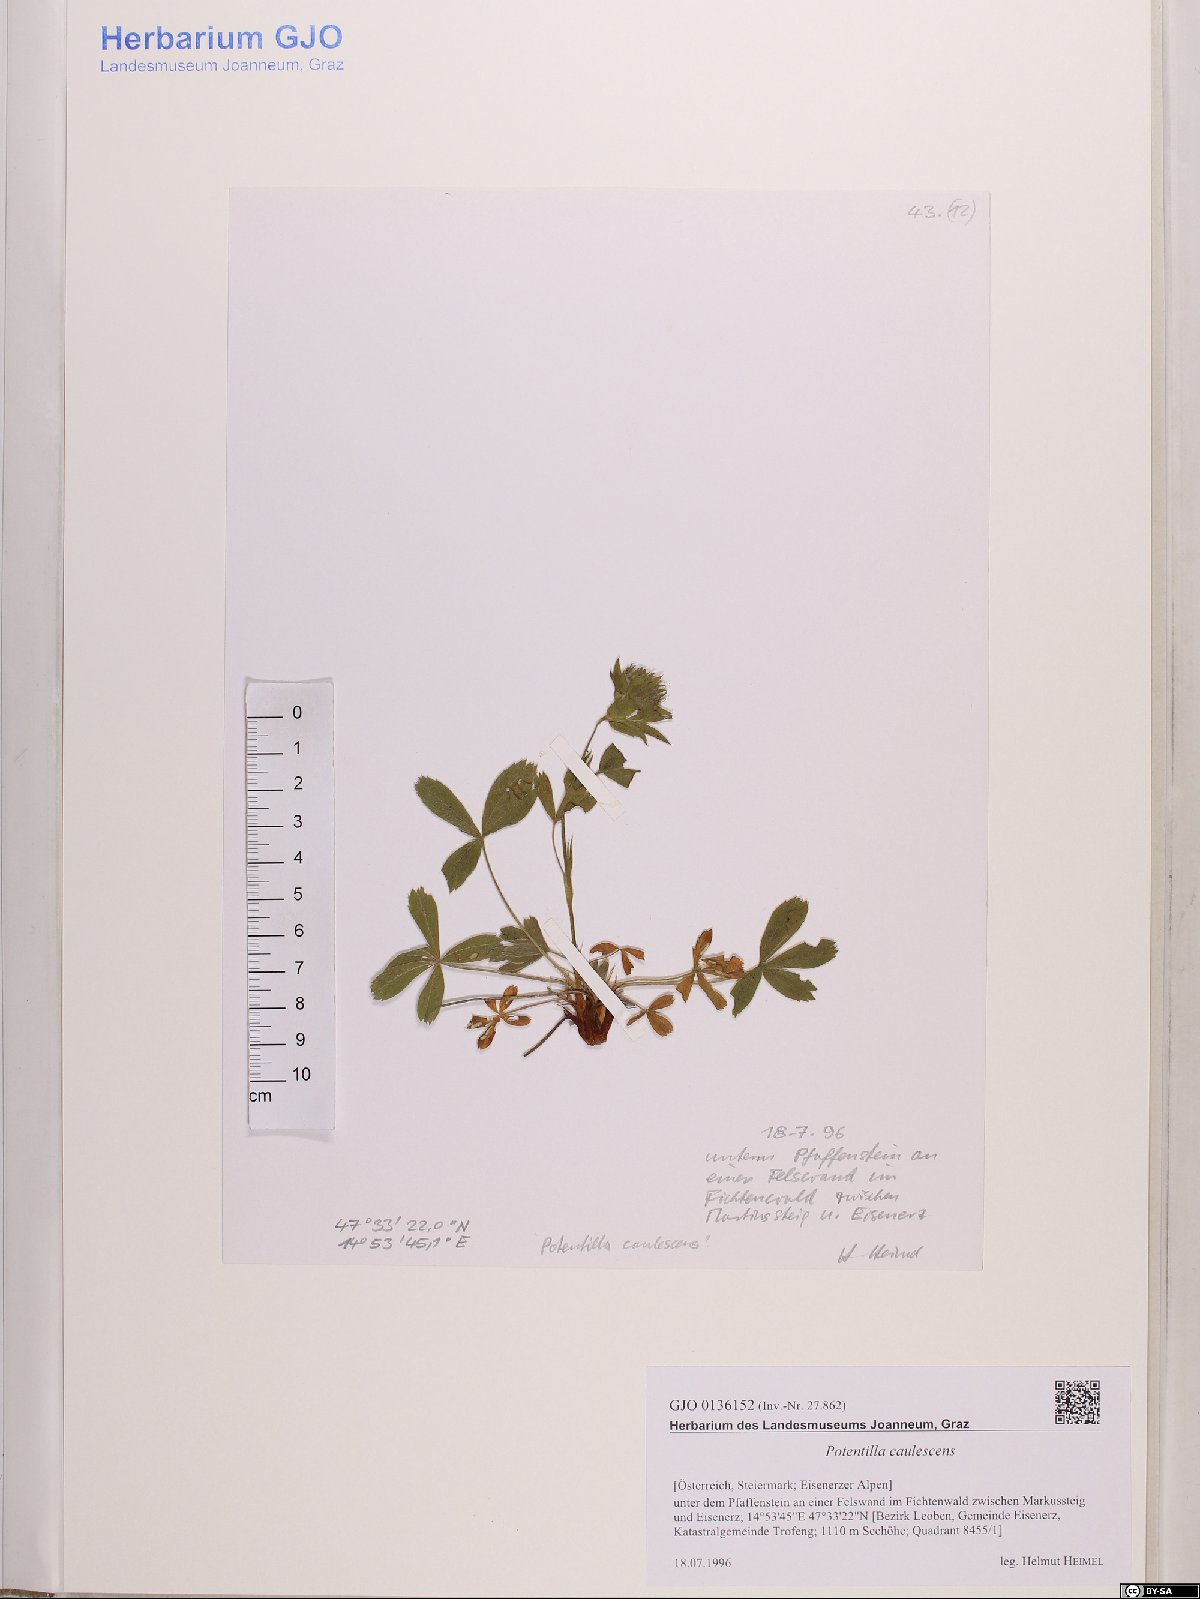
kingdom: Plantae
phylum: Tracheophyta
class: Magnoliopsida
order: Rosales
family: Rosaceae
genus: Potentilla
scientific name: Potentilla caulescens
